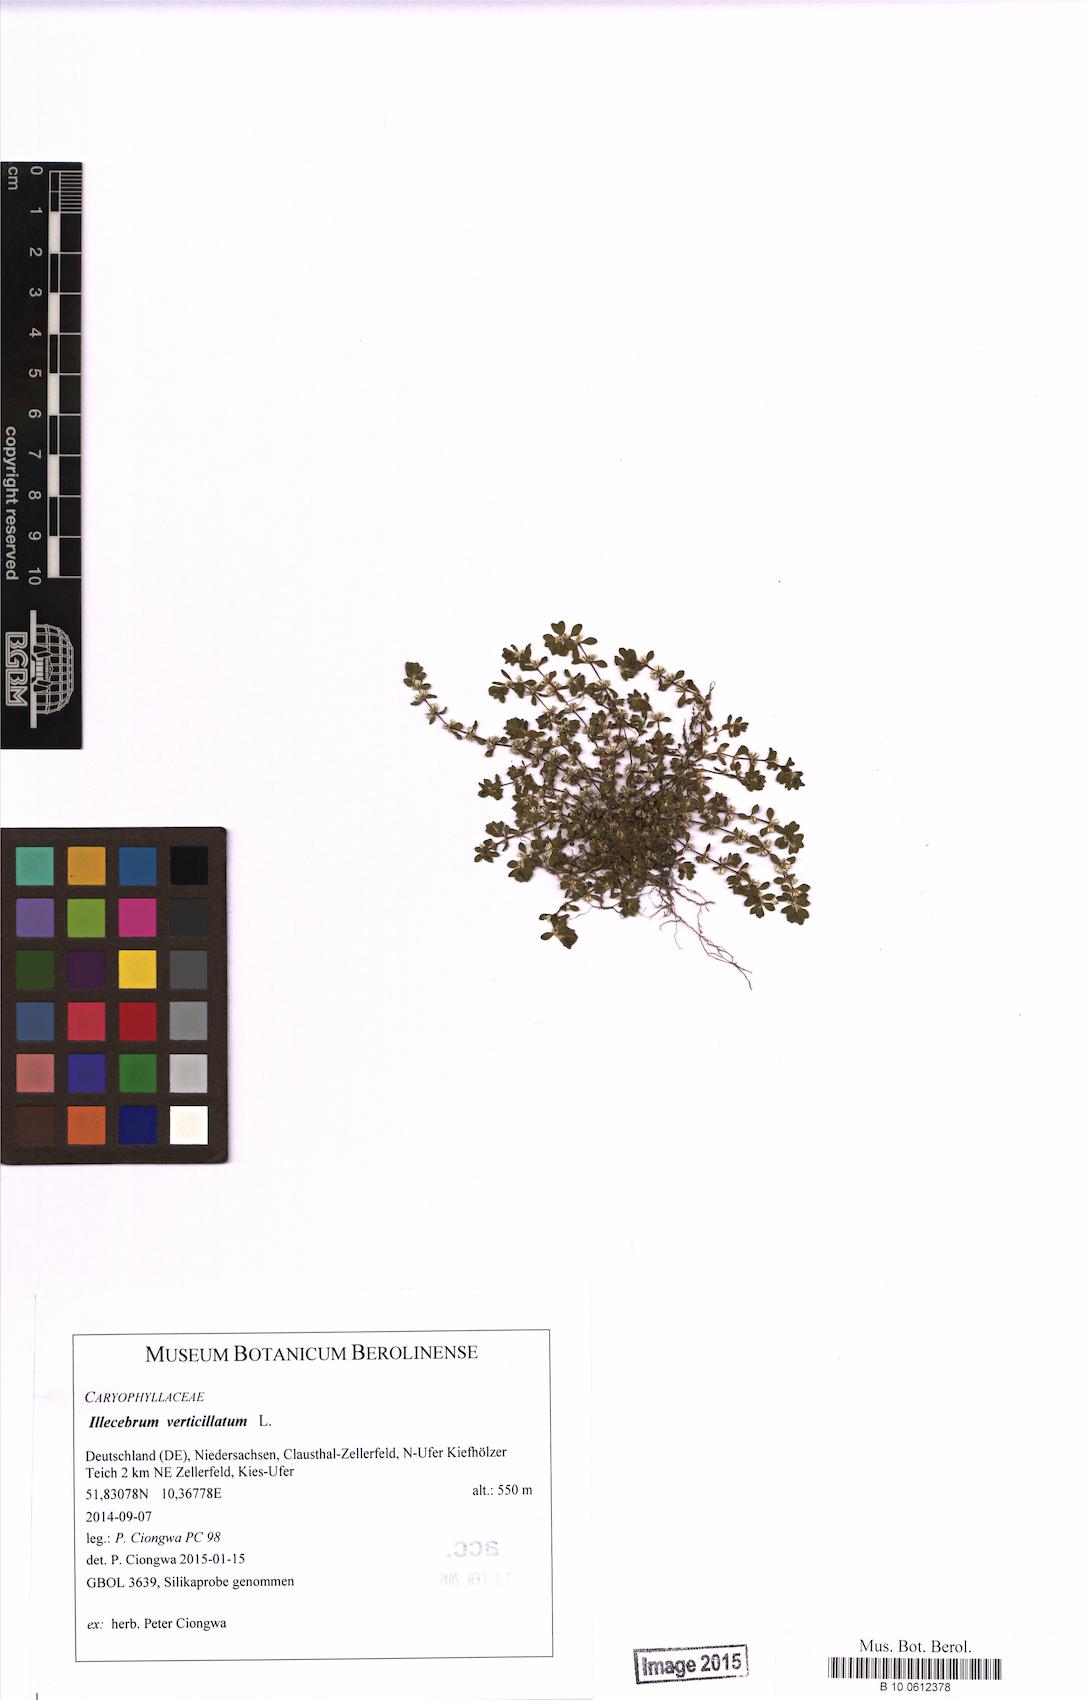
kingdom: Plantae
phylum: Tracheophyta
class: Magnoliopsida
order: Caryophyllales
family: Caryophyllaceae
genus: Illecebrum
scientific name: Illecebrum verticillatum
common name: Coral necklace
